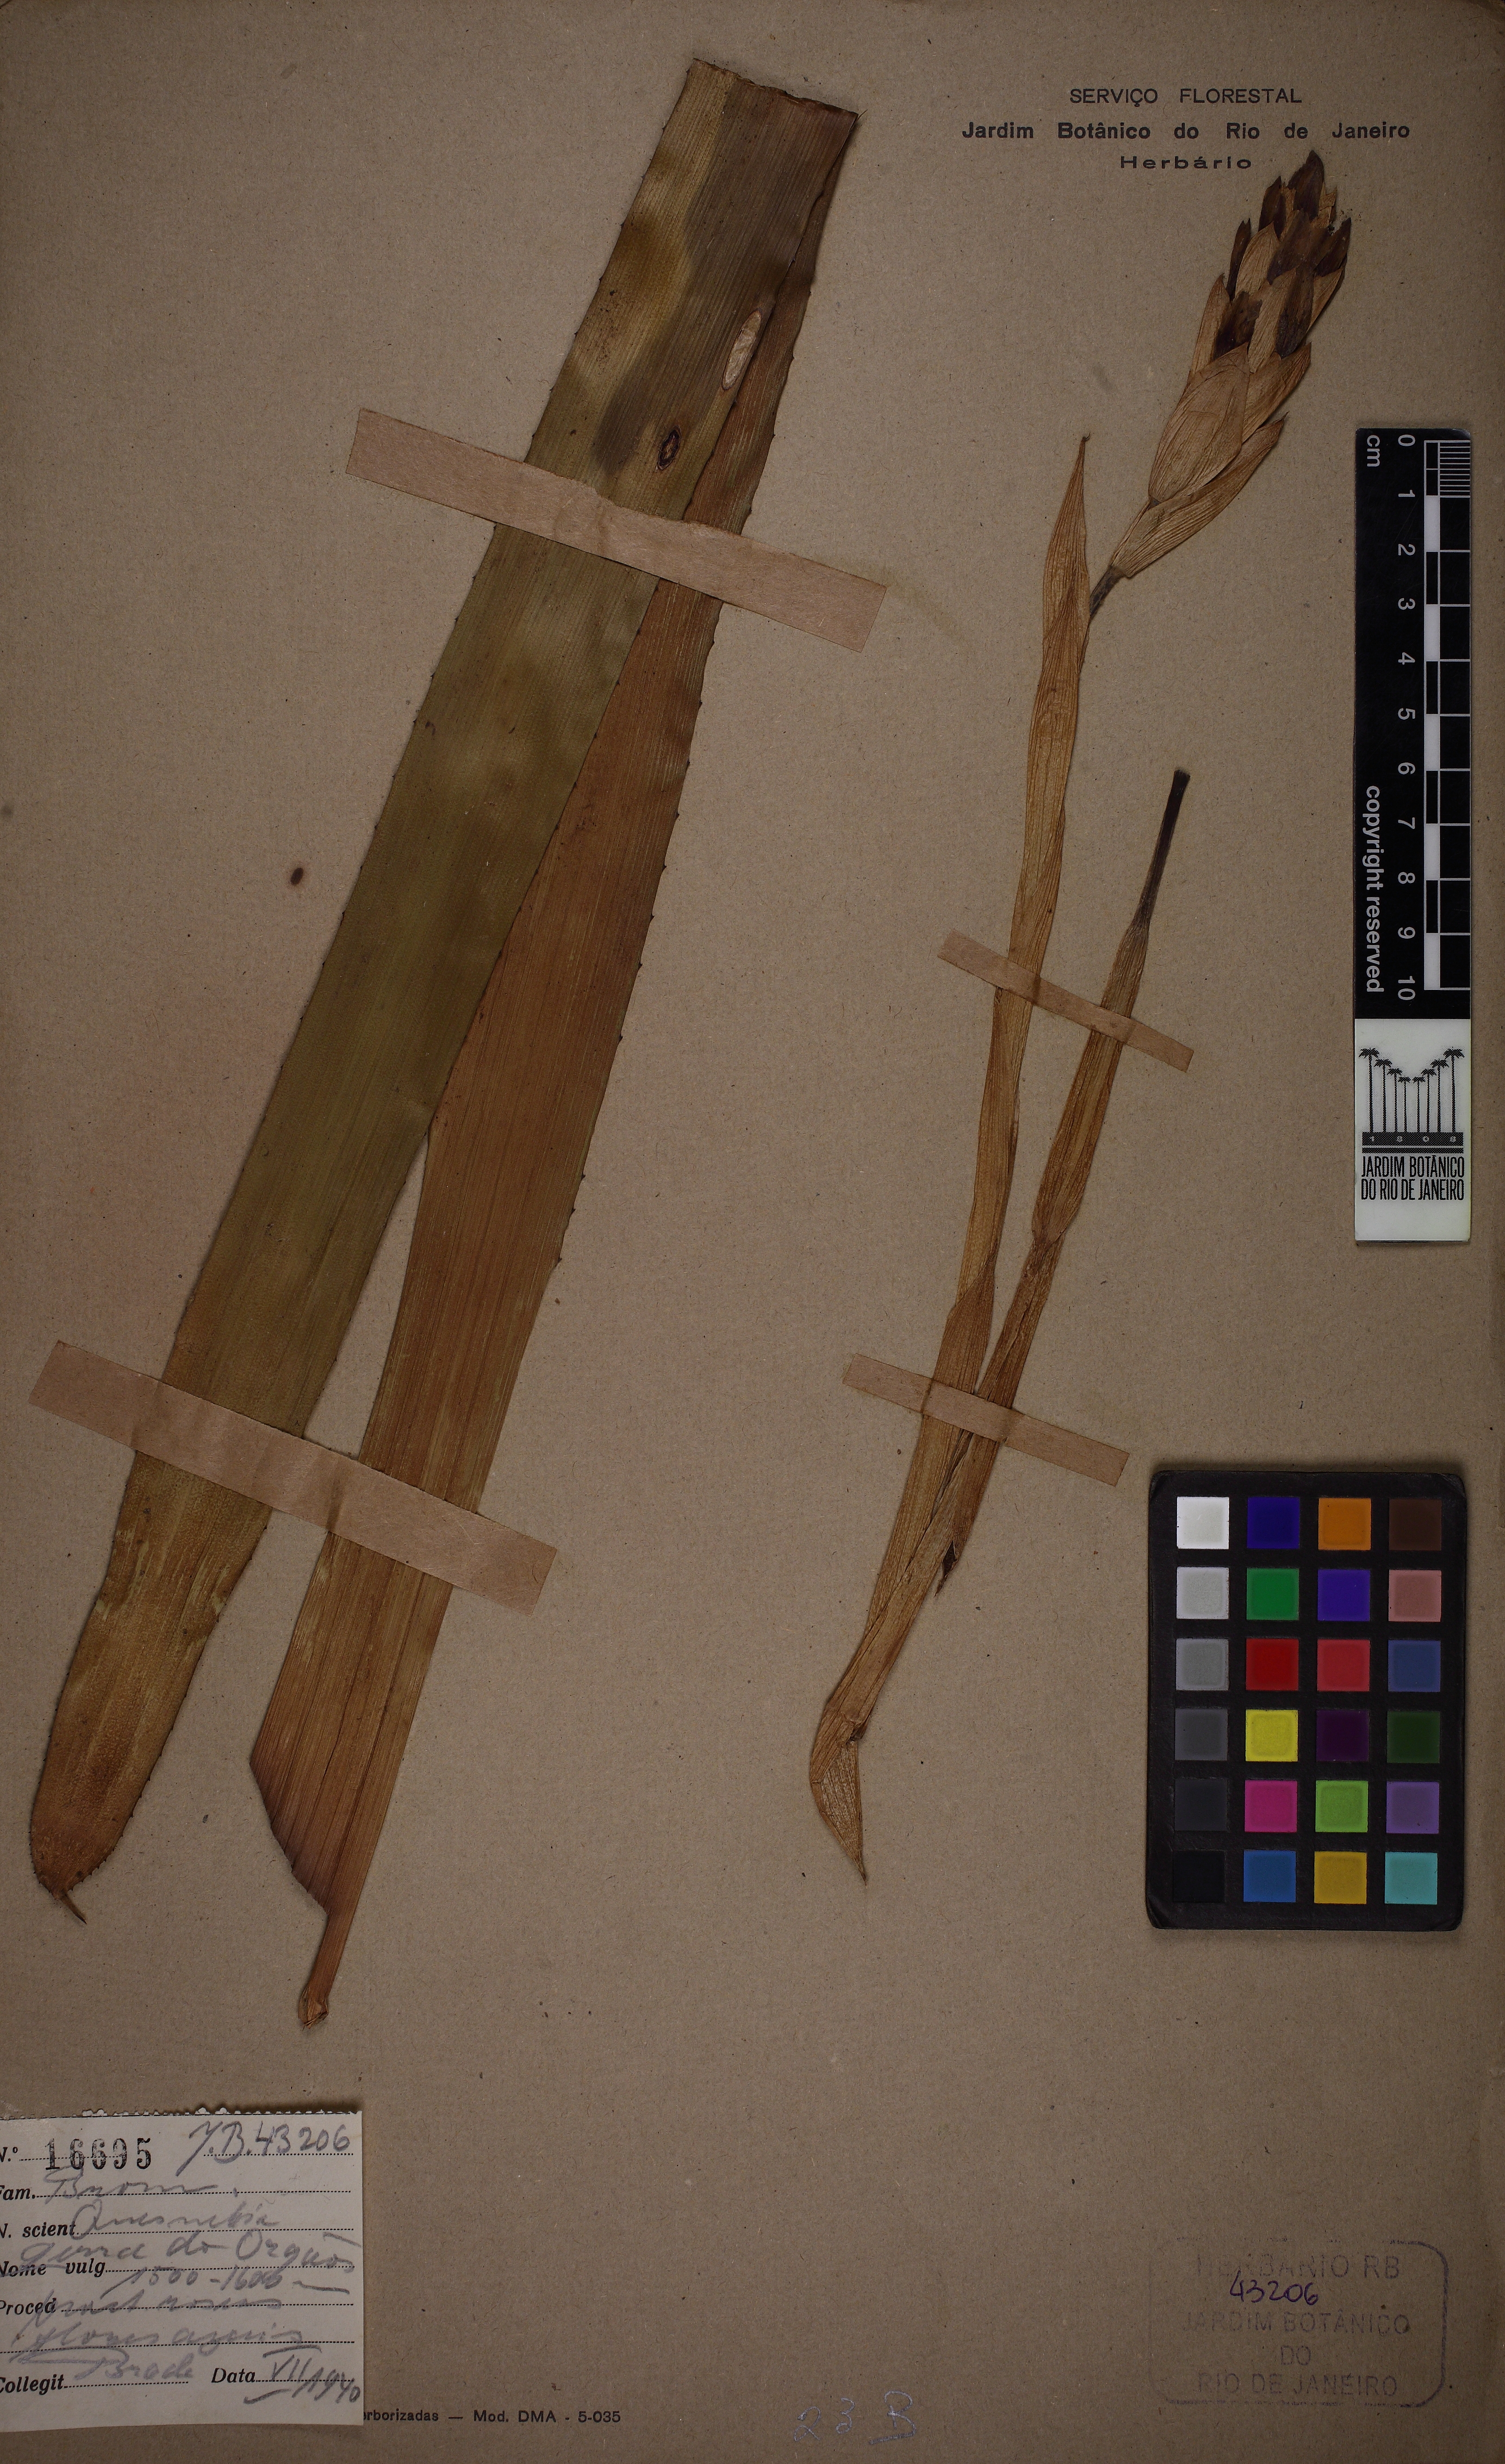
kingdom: Plantae
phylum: Tracheophyta
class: Liliopsida
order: Poales
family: Bromeliaceae
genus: Quesnelia
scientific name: Quesnelia lateralis
